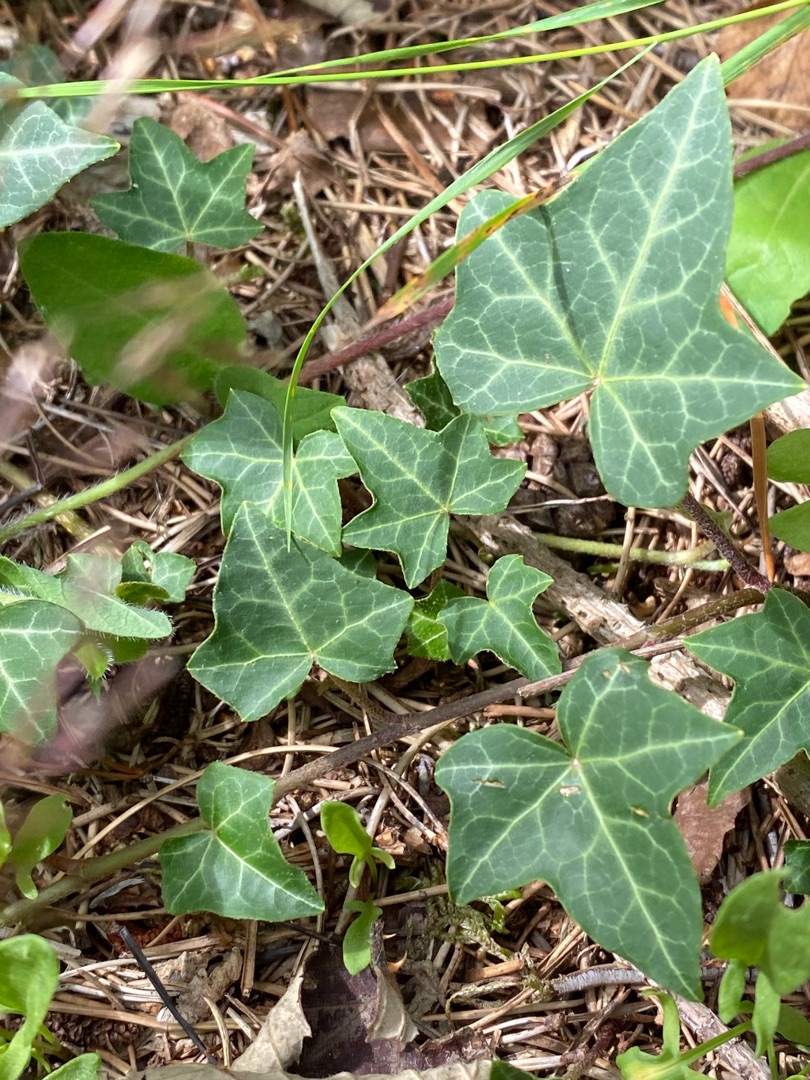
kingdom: Plantae
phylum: Tracheophyta
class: Magnoliopsida
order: Apiales
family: Araliaceae
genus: Hedera
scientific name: Hedera helix
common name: Vedbend
